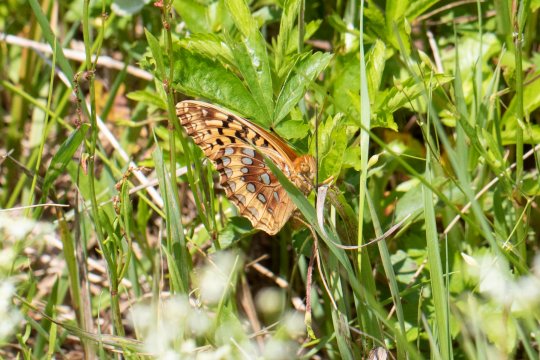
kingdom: Animalia
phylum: Arthropoda
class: Insecta
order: Lepidoptera
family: Nymphalidae
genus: Speyeria
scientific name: Speyeria cybele
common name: Great Spangled Fritillary
